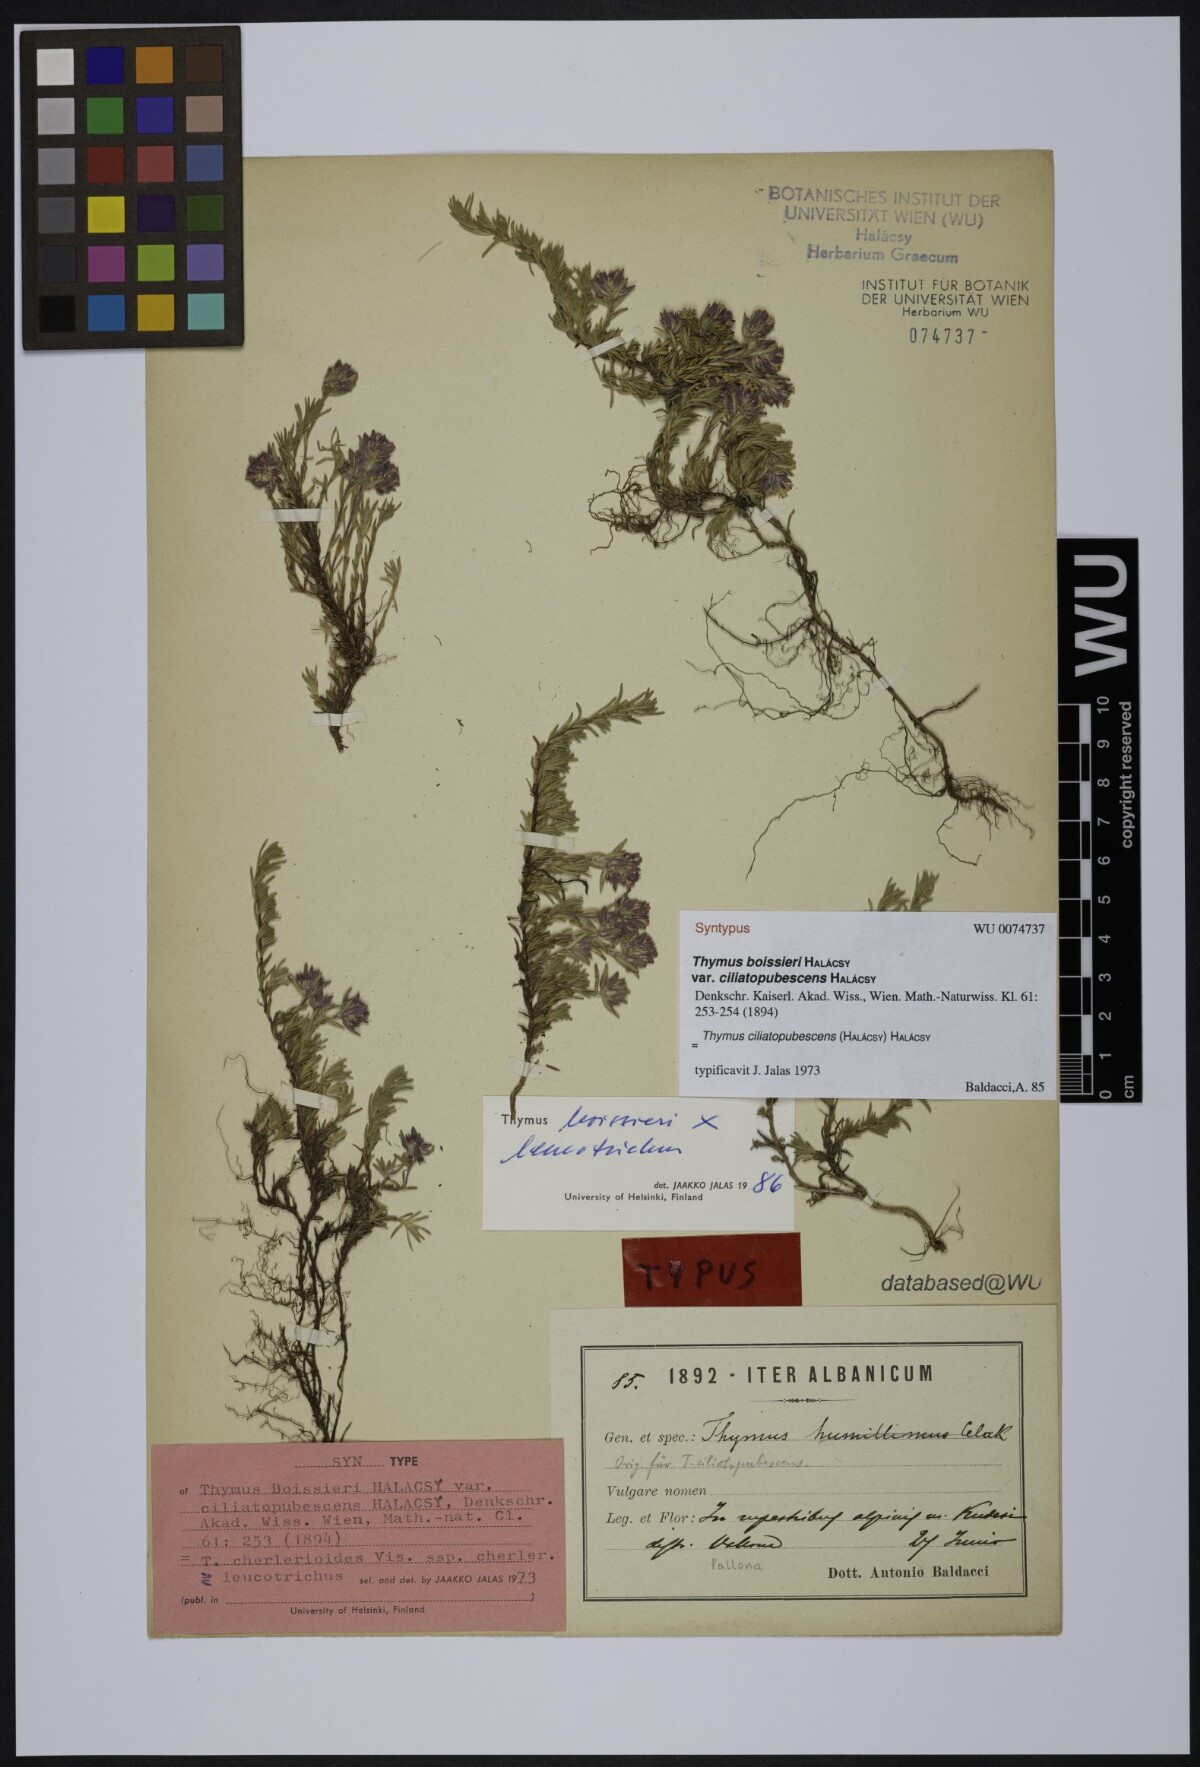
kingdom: Plantae
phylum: Tracheophyta
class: Magnoliopsida
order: Lamiales
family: Lamiaceae
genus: Thymus
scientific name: Thymus boissieri
